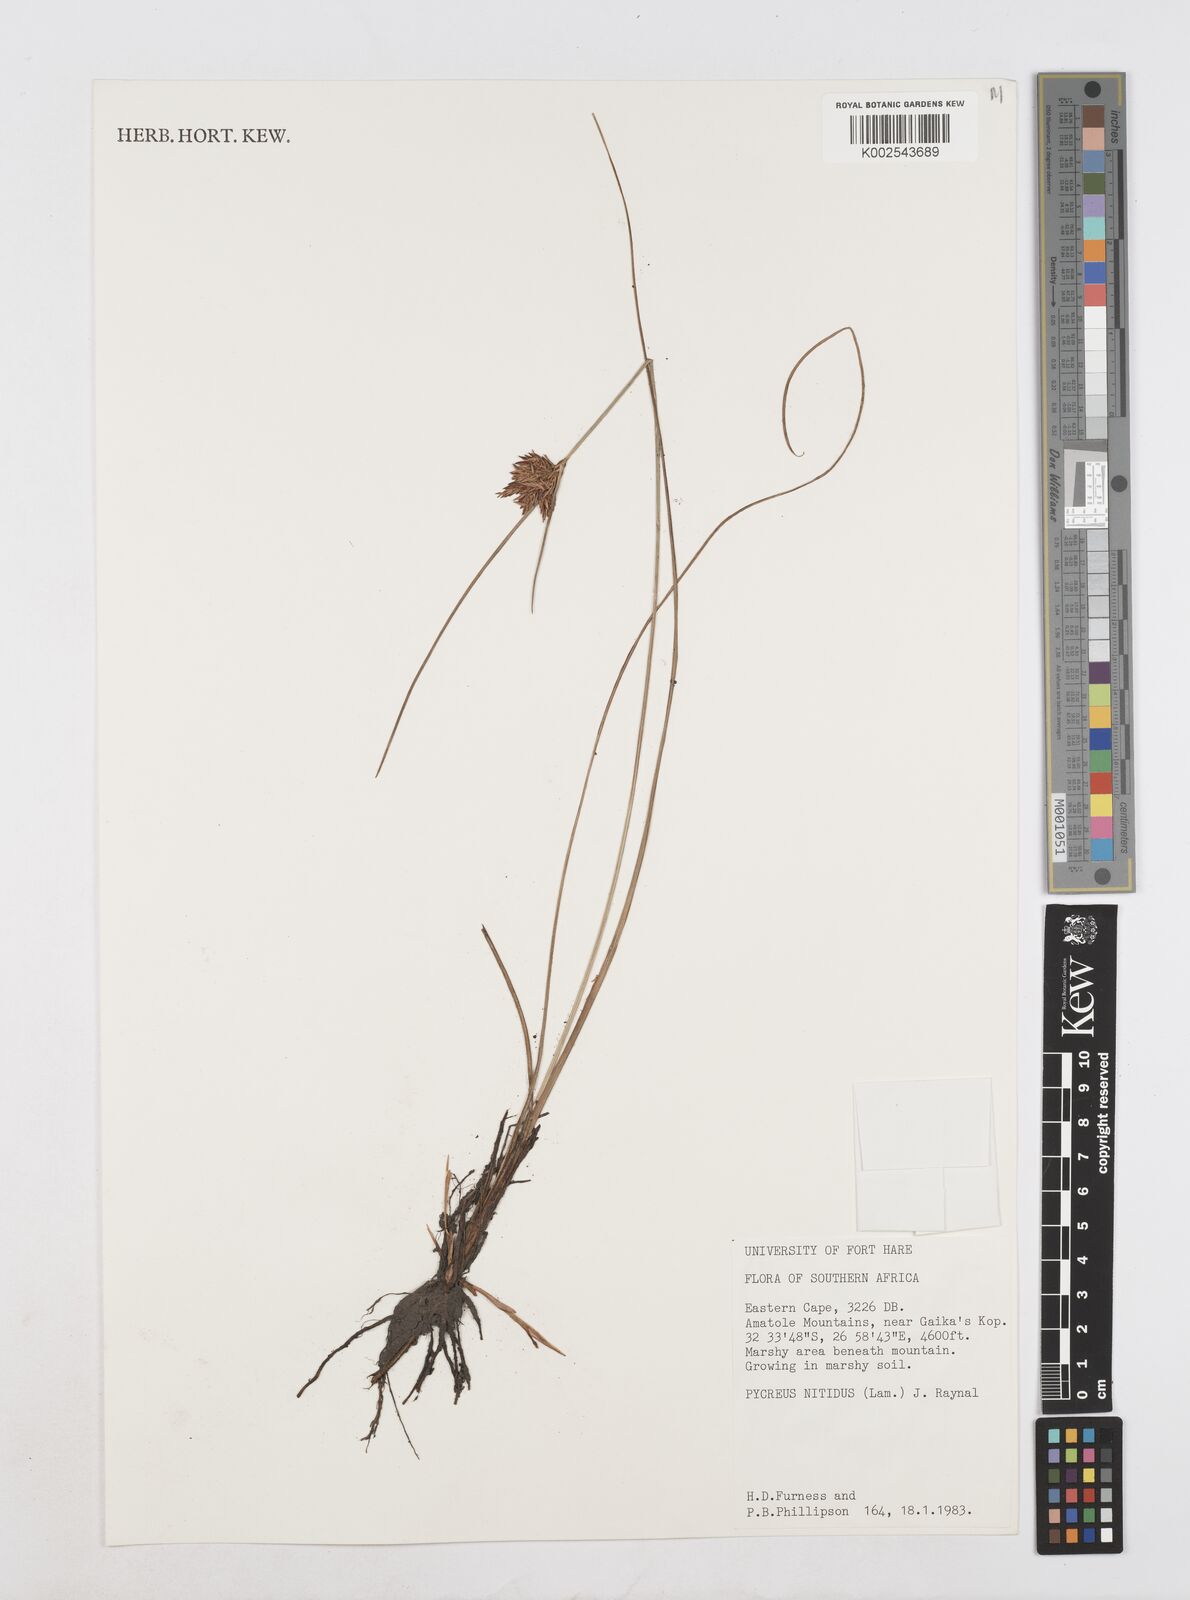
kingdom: Plantae
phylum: Tracheophyta
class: Liliopsida
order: Poales
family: Cyperaceae
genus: Cyperus
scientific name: Cyperus nitidus
